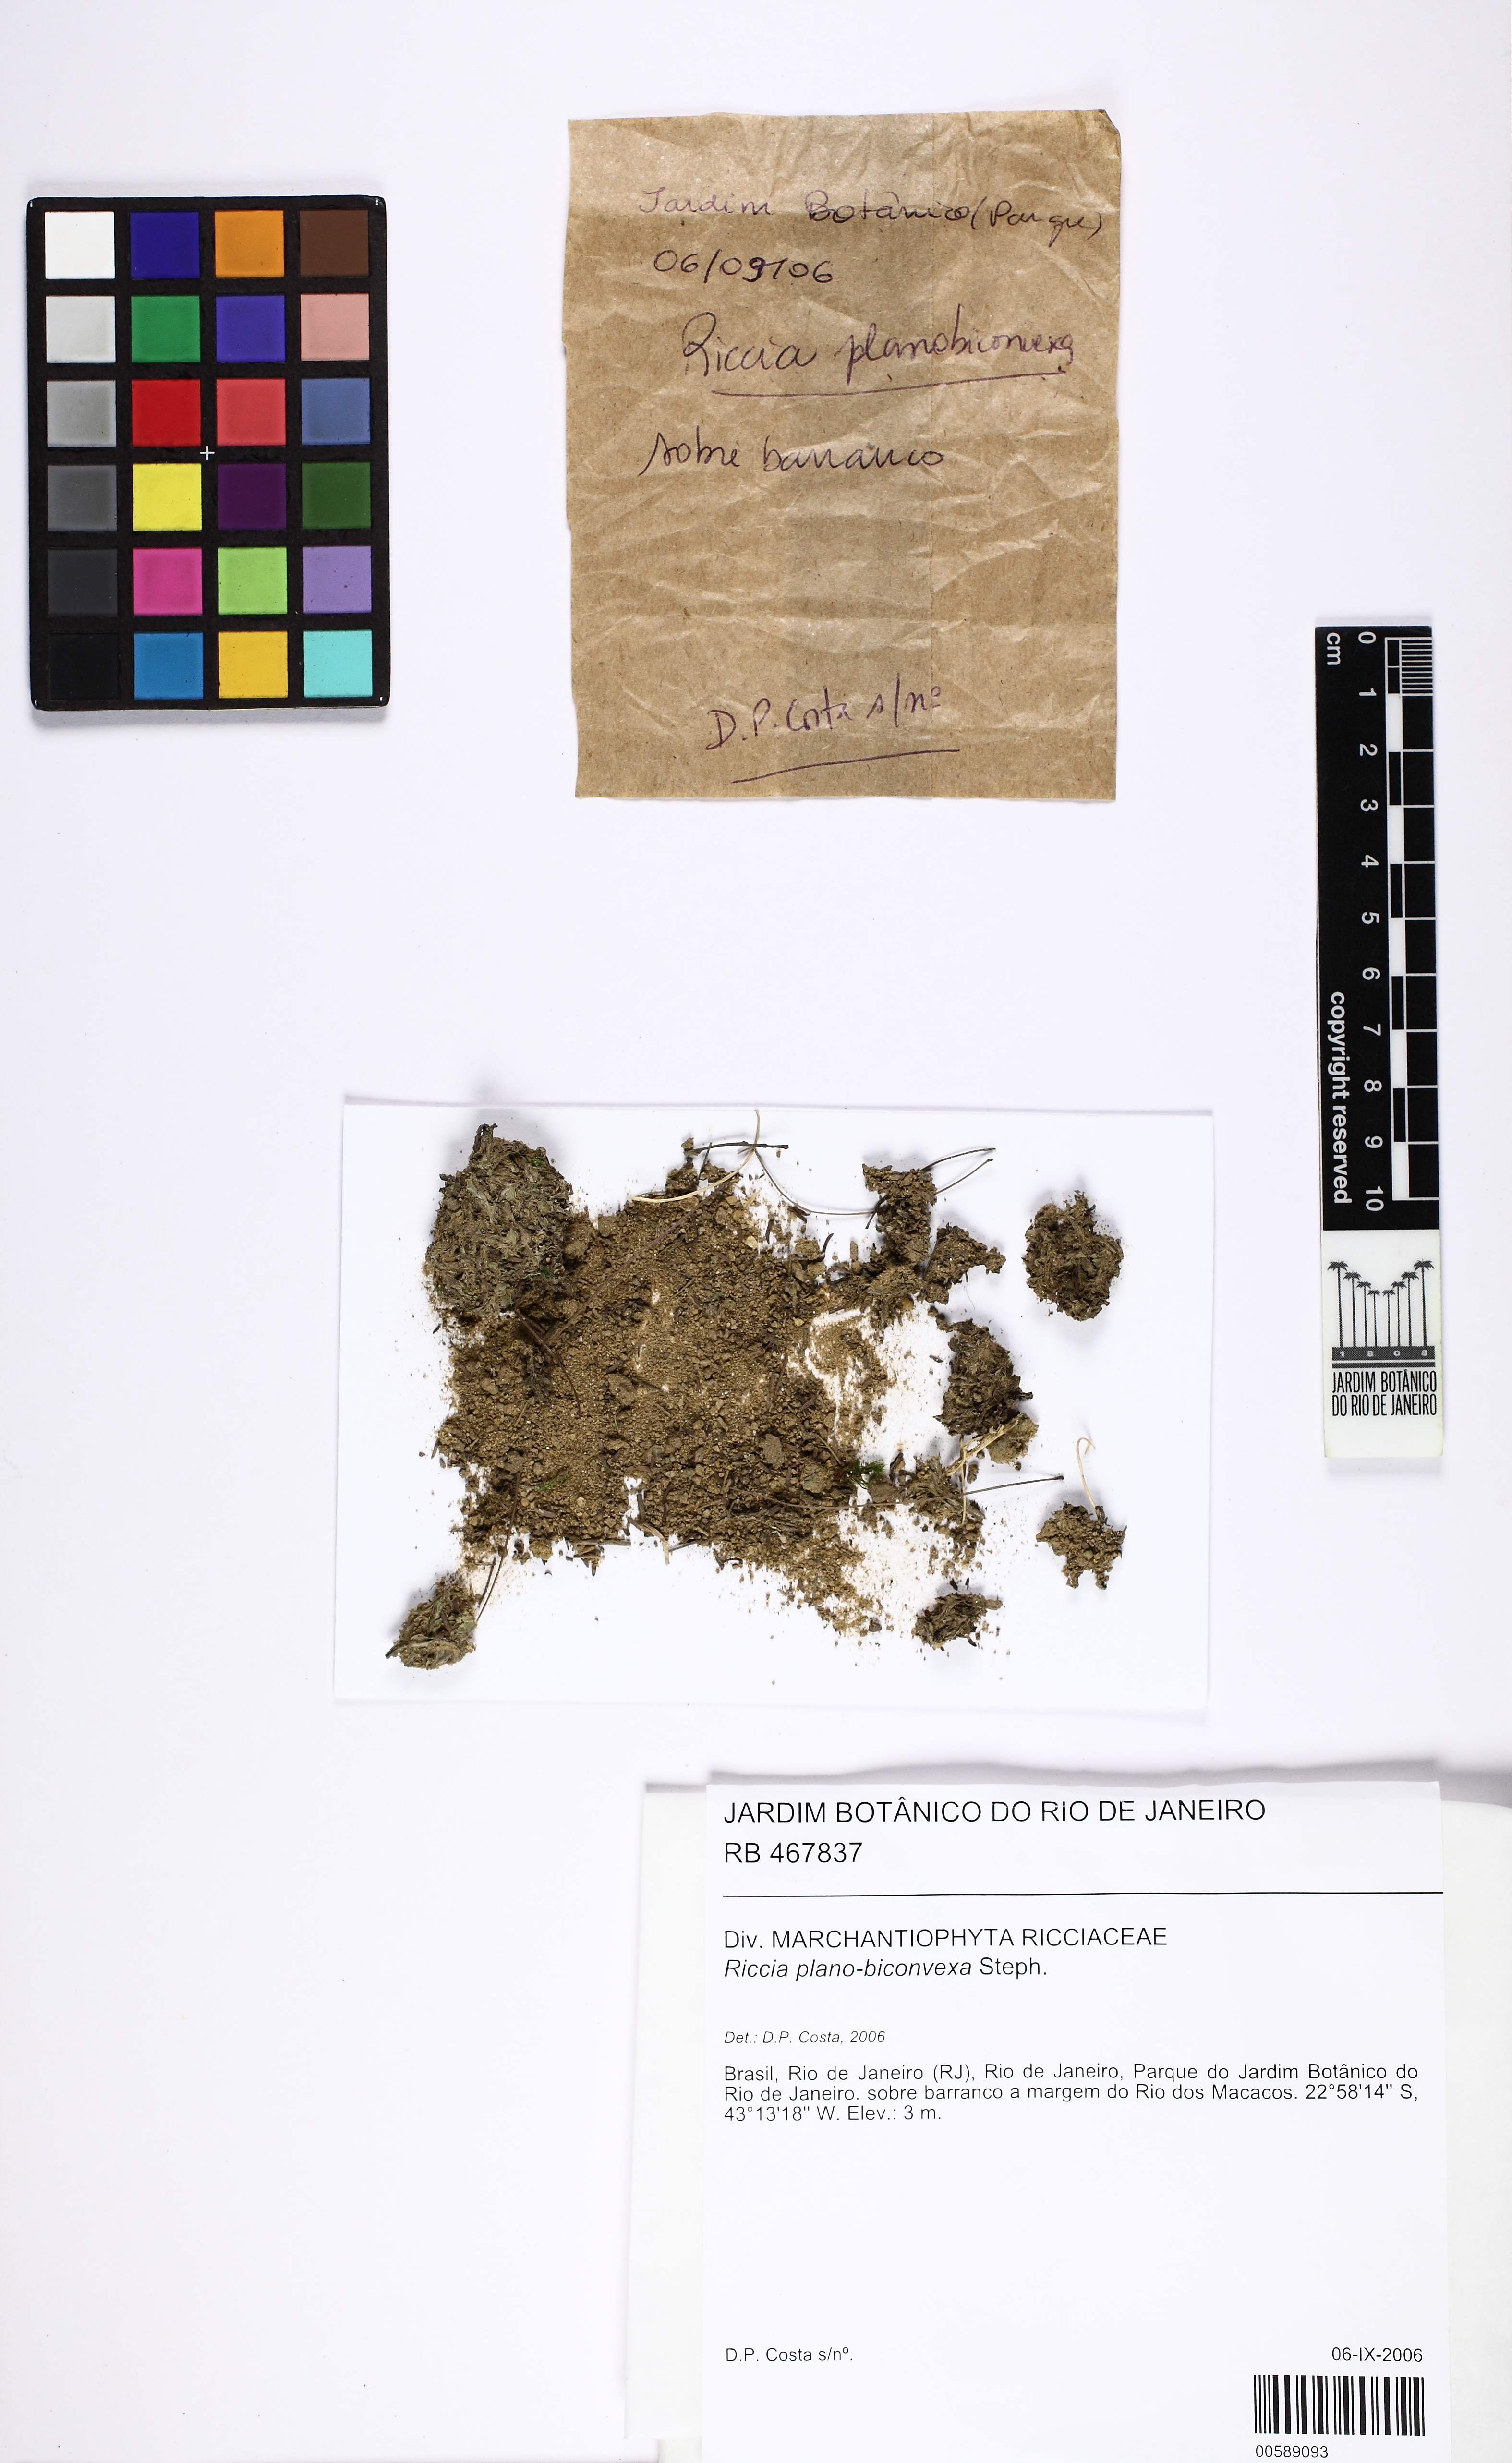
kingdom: Plantae
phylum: Marchantiophyta
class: Marchantiopsida
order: Marchantiales
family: Ricciaceae
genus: Riccia
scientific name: Riccia planobiconvexa
